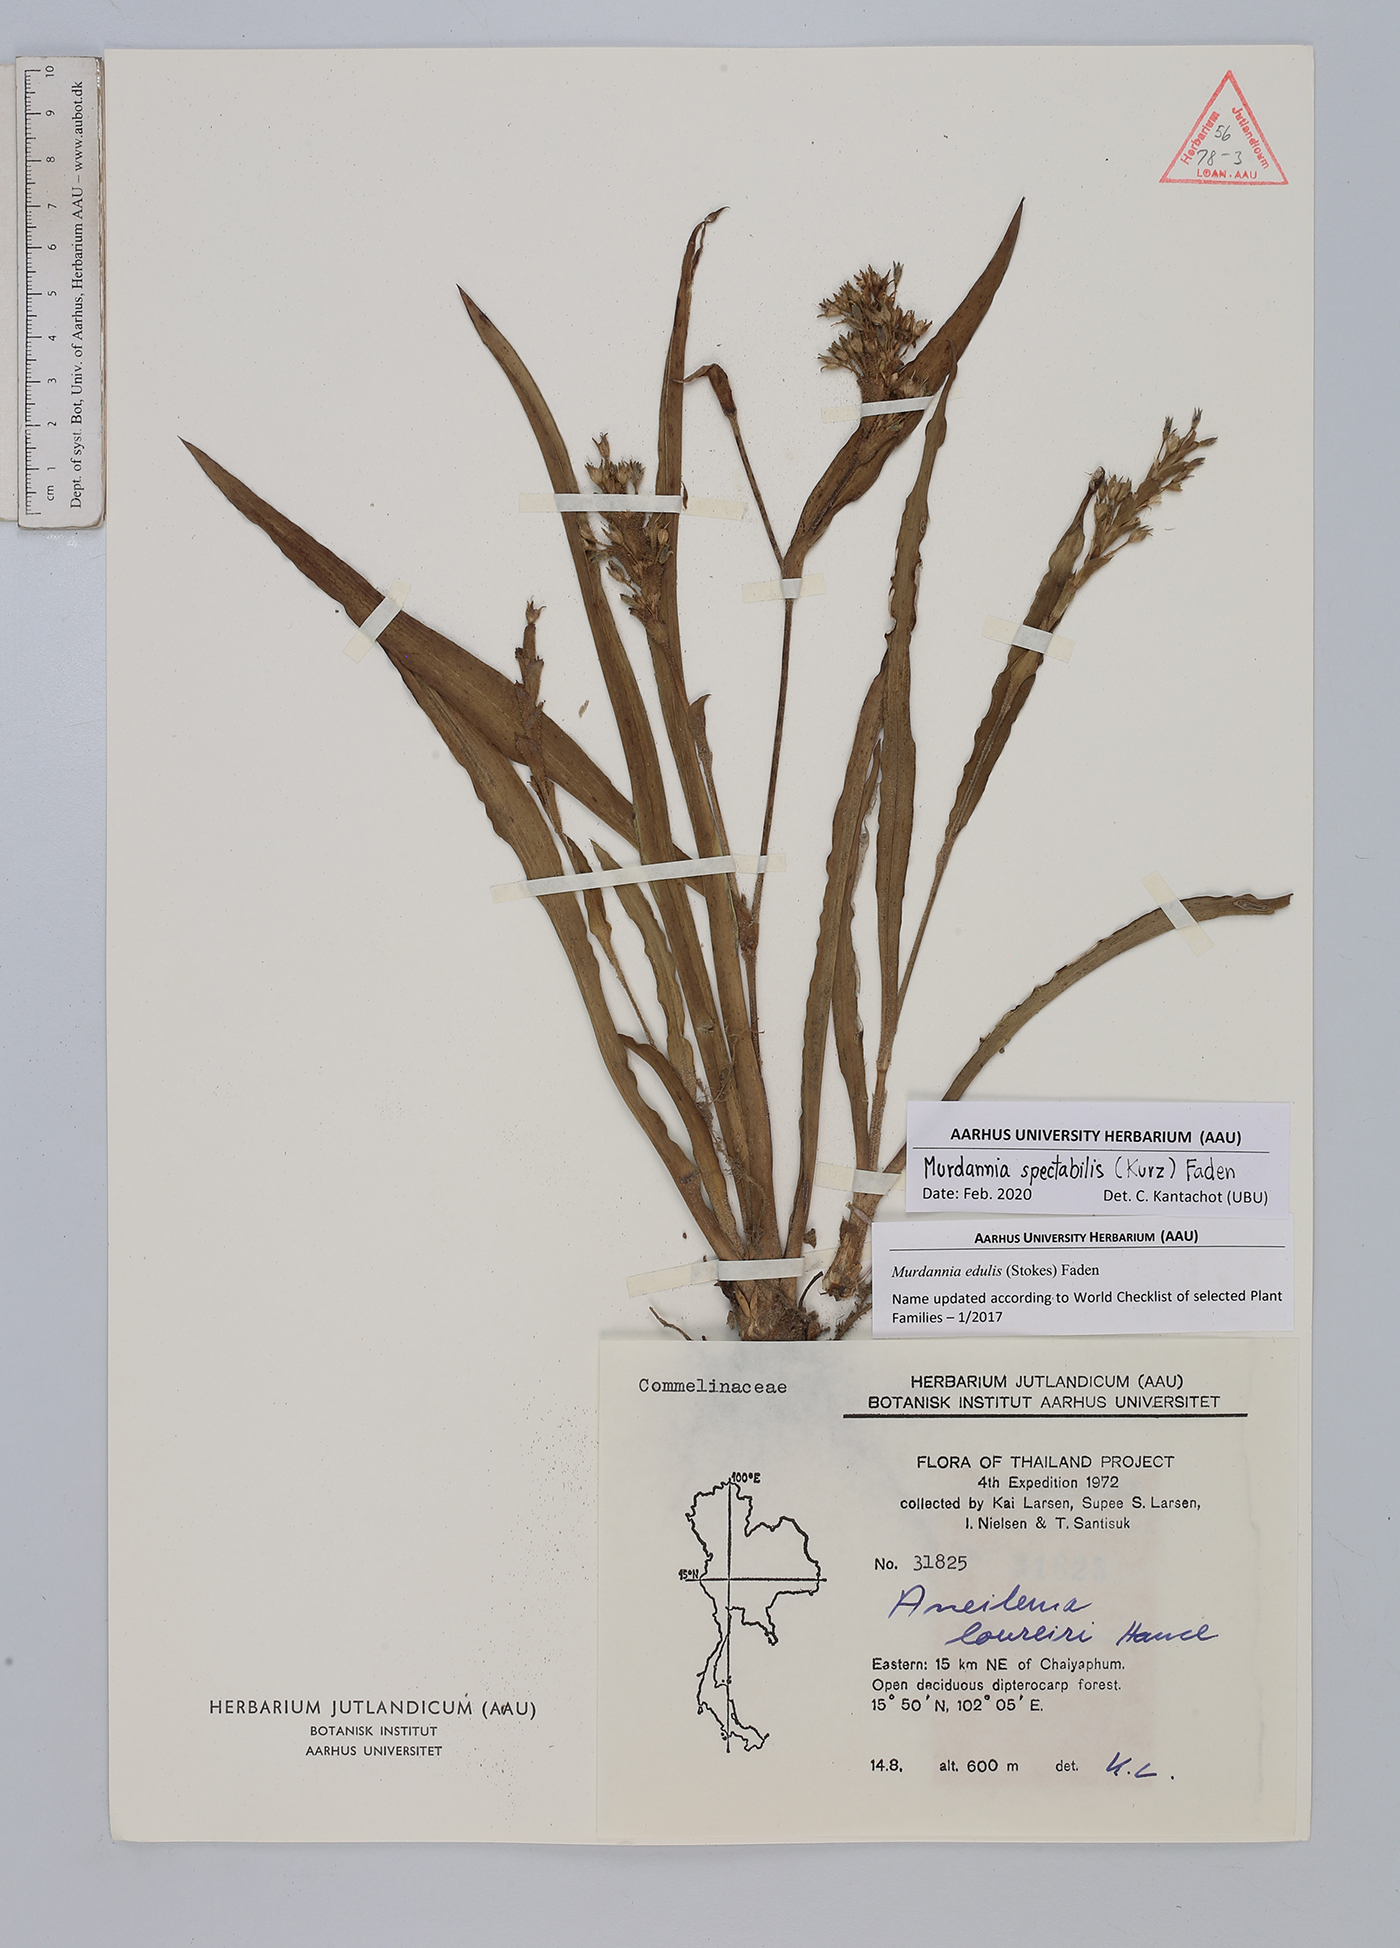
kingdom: Plantae
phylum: Tracheophyta
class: Liliopsida
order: Commelinales
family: Commelinaceae
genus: Murdannia
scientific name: Murdannia spectabilis
